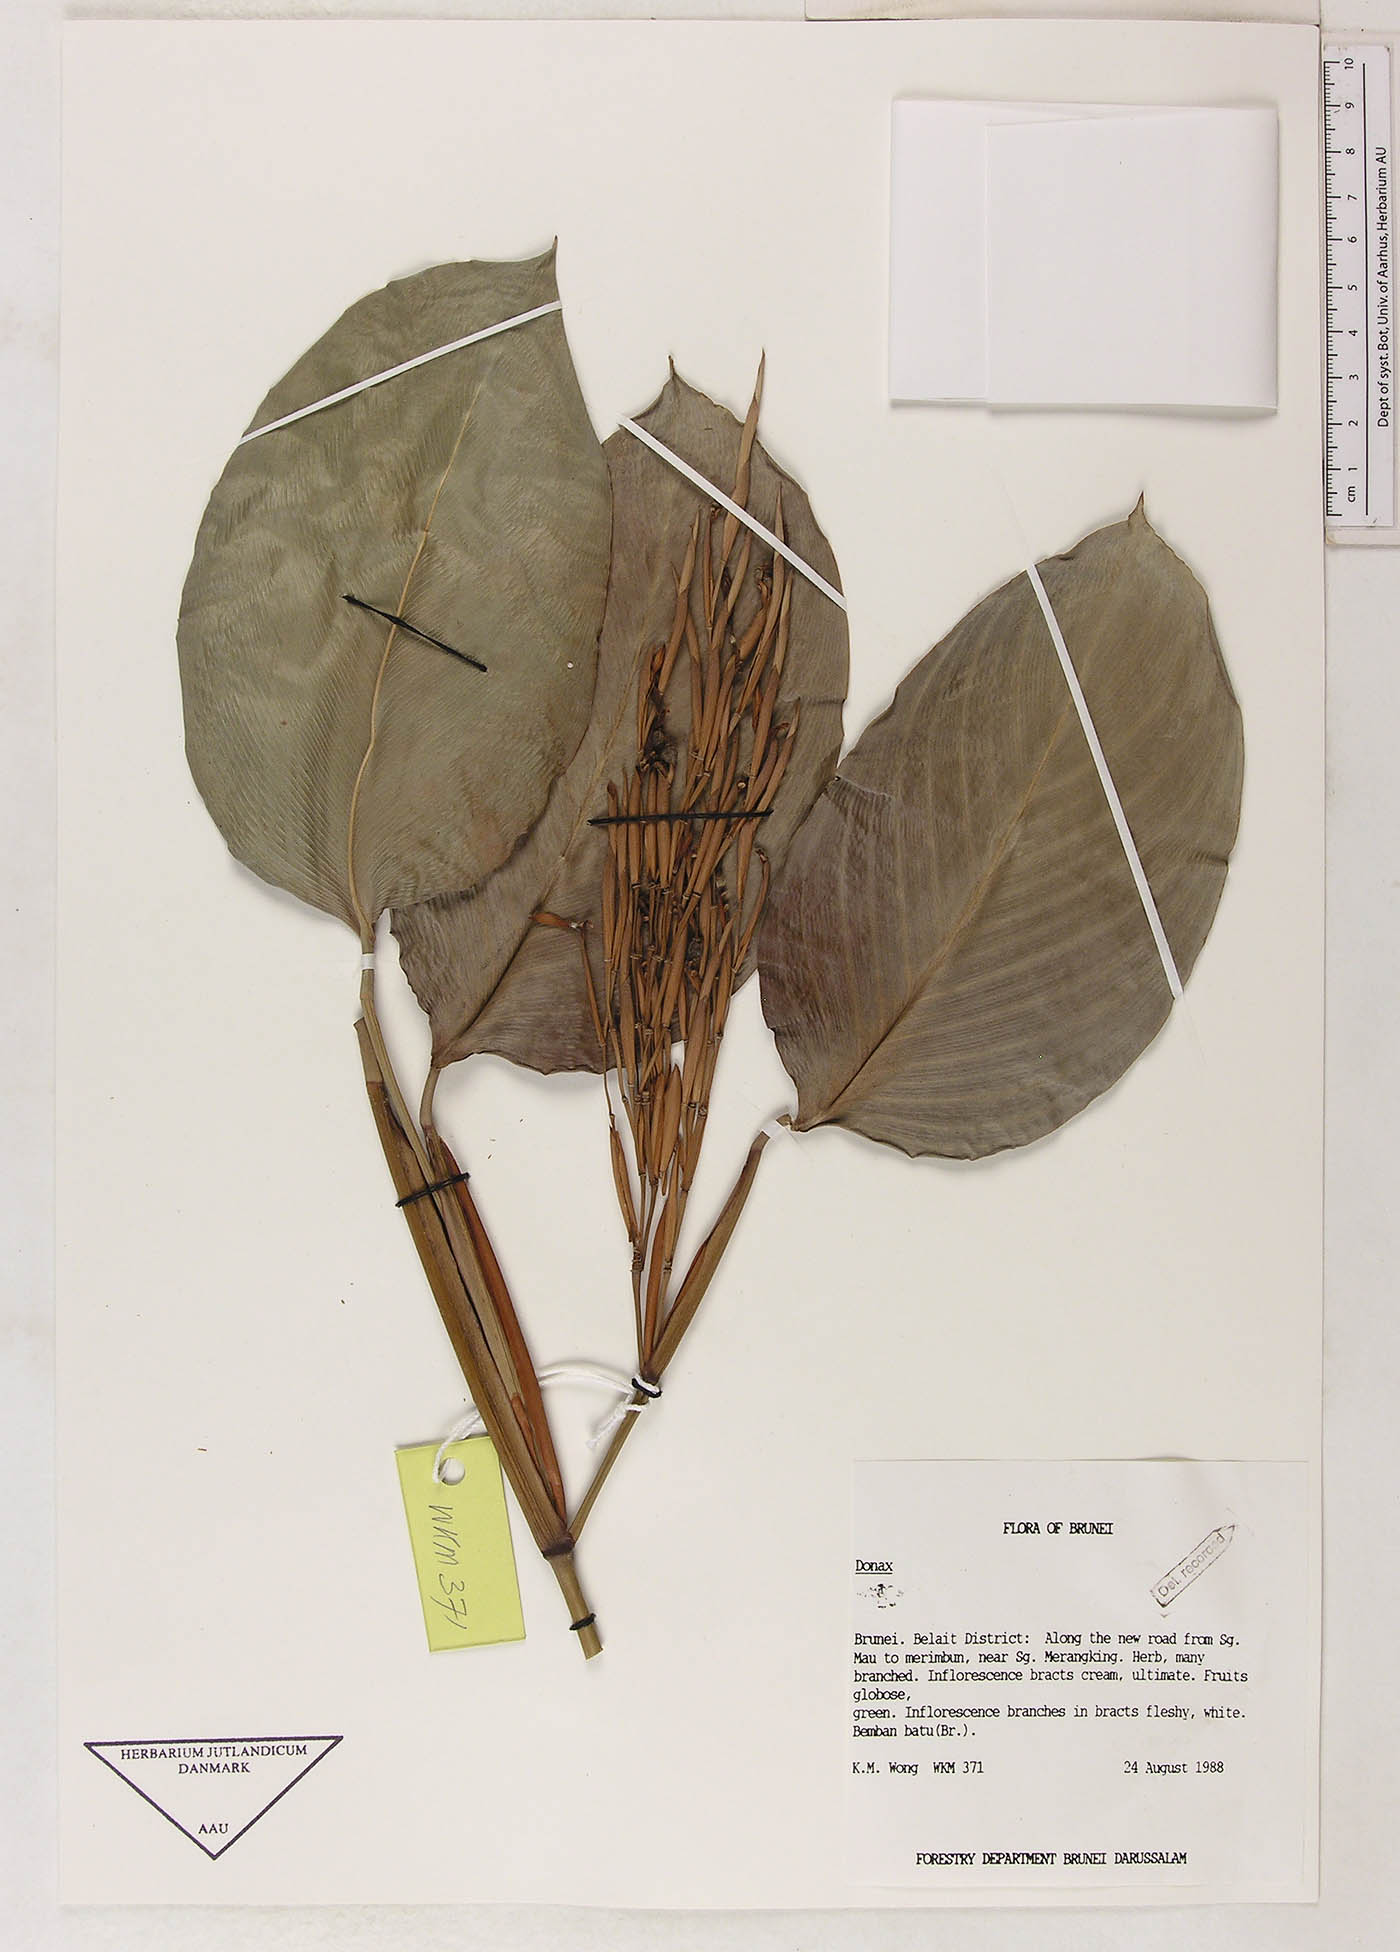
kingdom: Plantae
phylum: Tracheophyta
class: Liliopsida
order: Zingiberales
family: Marantaceae
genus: Donax
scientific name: Donax canniformis
